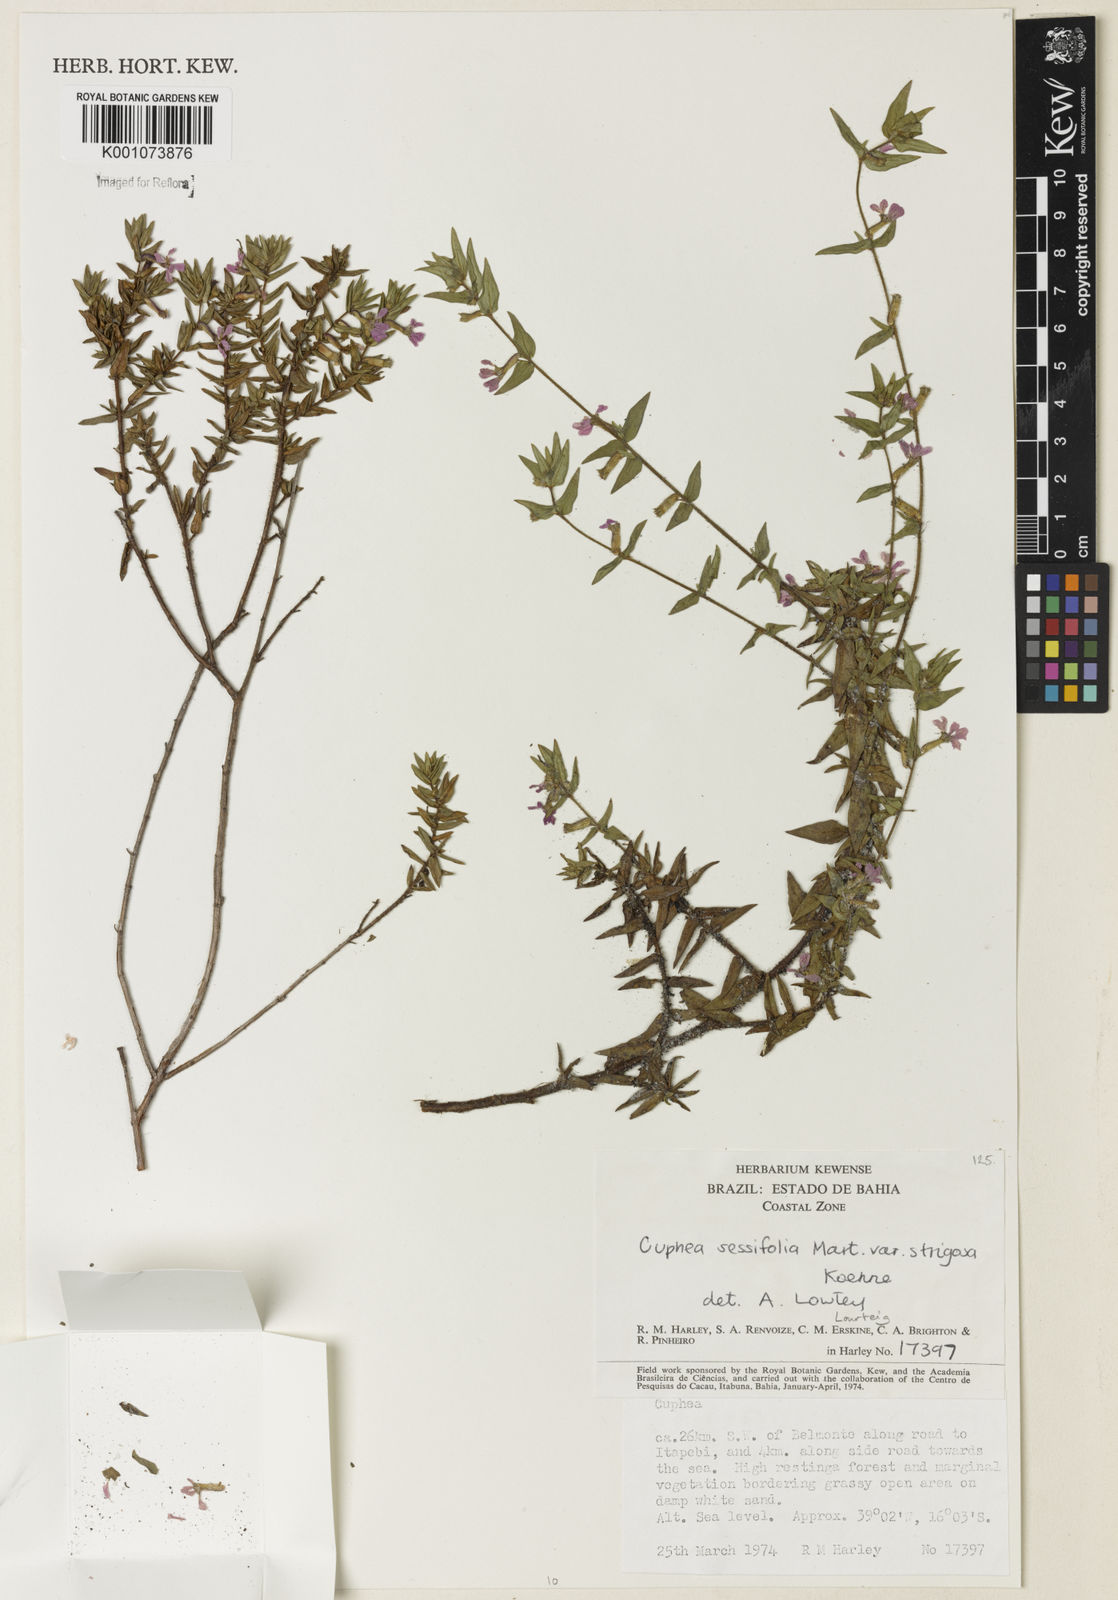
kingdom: Plantae
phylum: Tracheophyta
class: Magnoliopsida
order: Myrtales
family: Lythraceae
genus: Cuphea
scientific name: Cuphea sessilifolia
